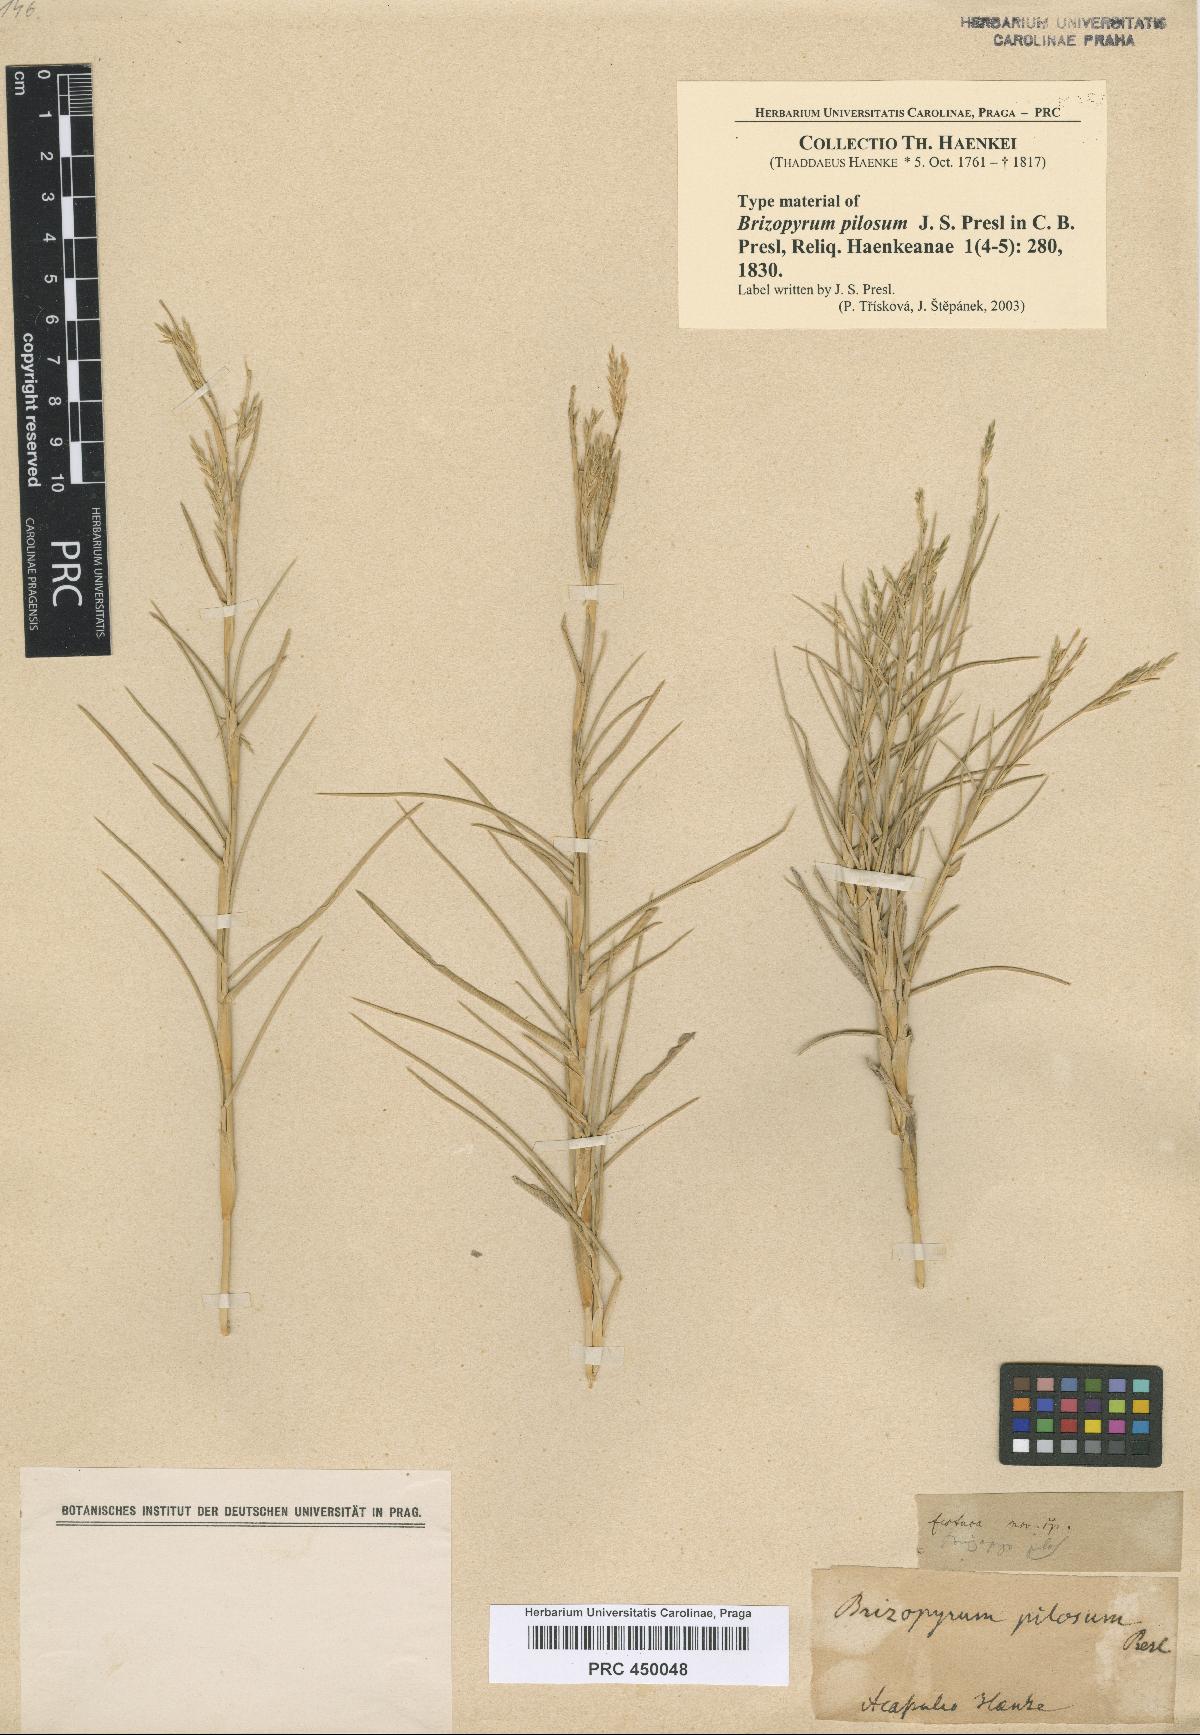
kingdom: Plantae
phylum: Tracheophyta
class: Liliopsida
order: Poales
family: Poaceae
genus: Jouvea
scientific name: Jouvea pilosa
